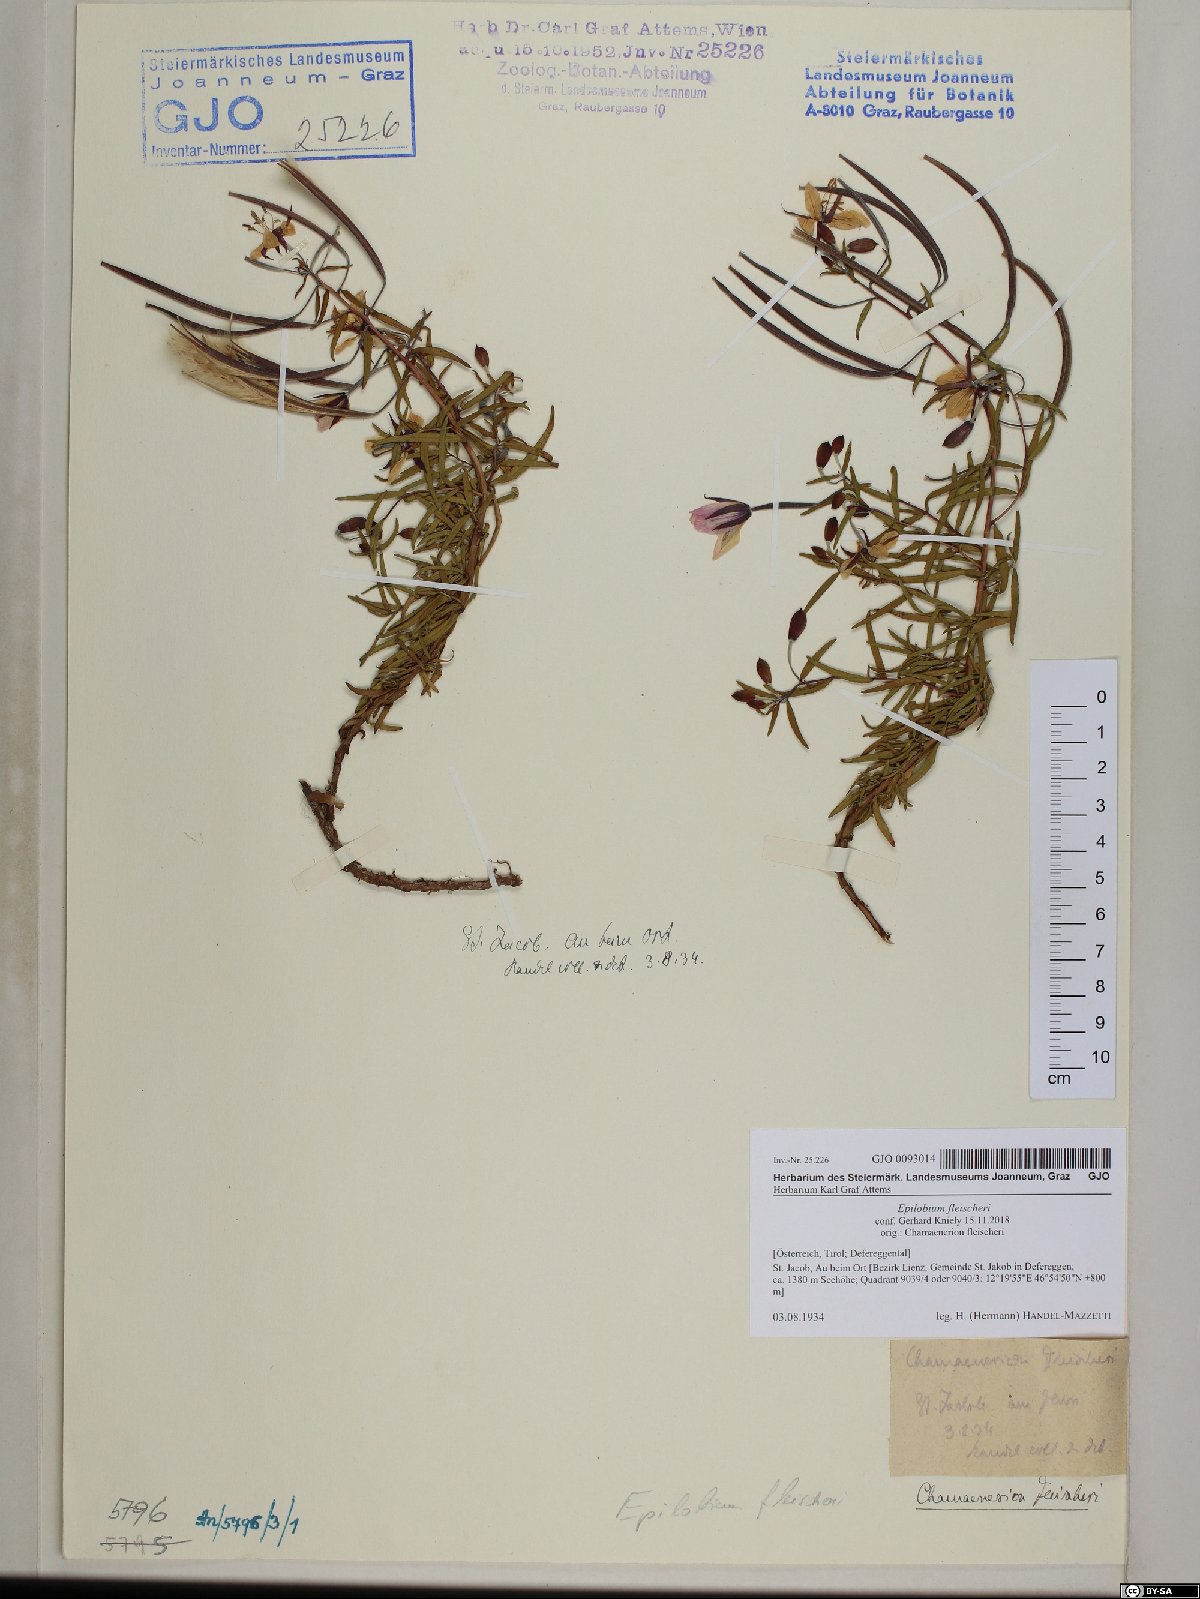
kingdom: Plantae
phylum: Tracheophyta
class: Magnoliopsida
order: Myrtales
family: Onagraceae
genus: Chamaenerion
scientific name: Chamaenerion fleischeri
